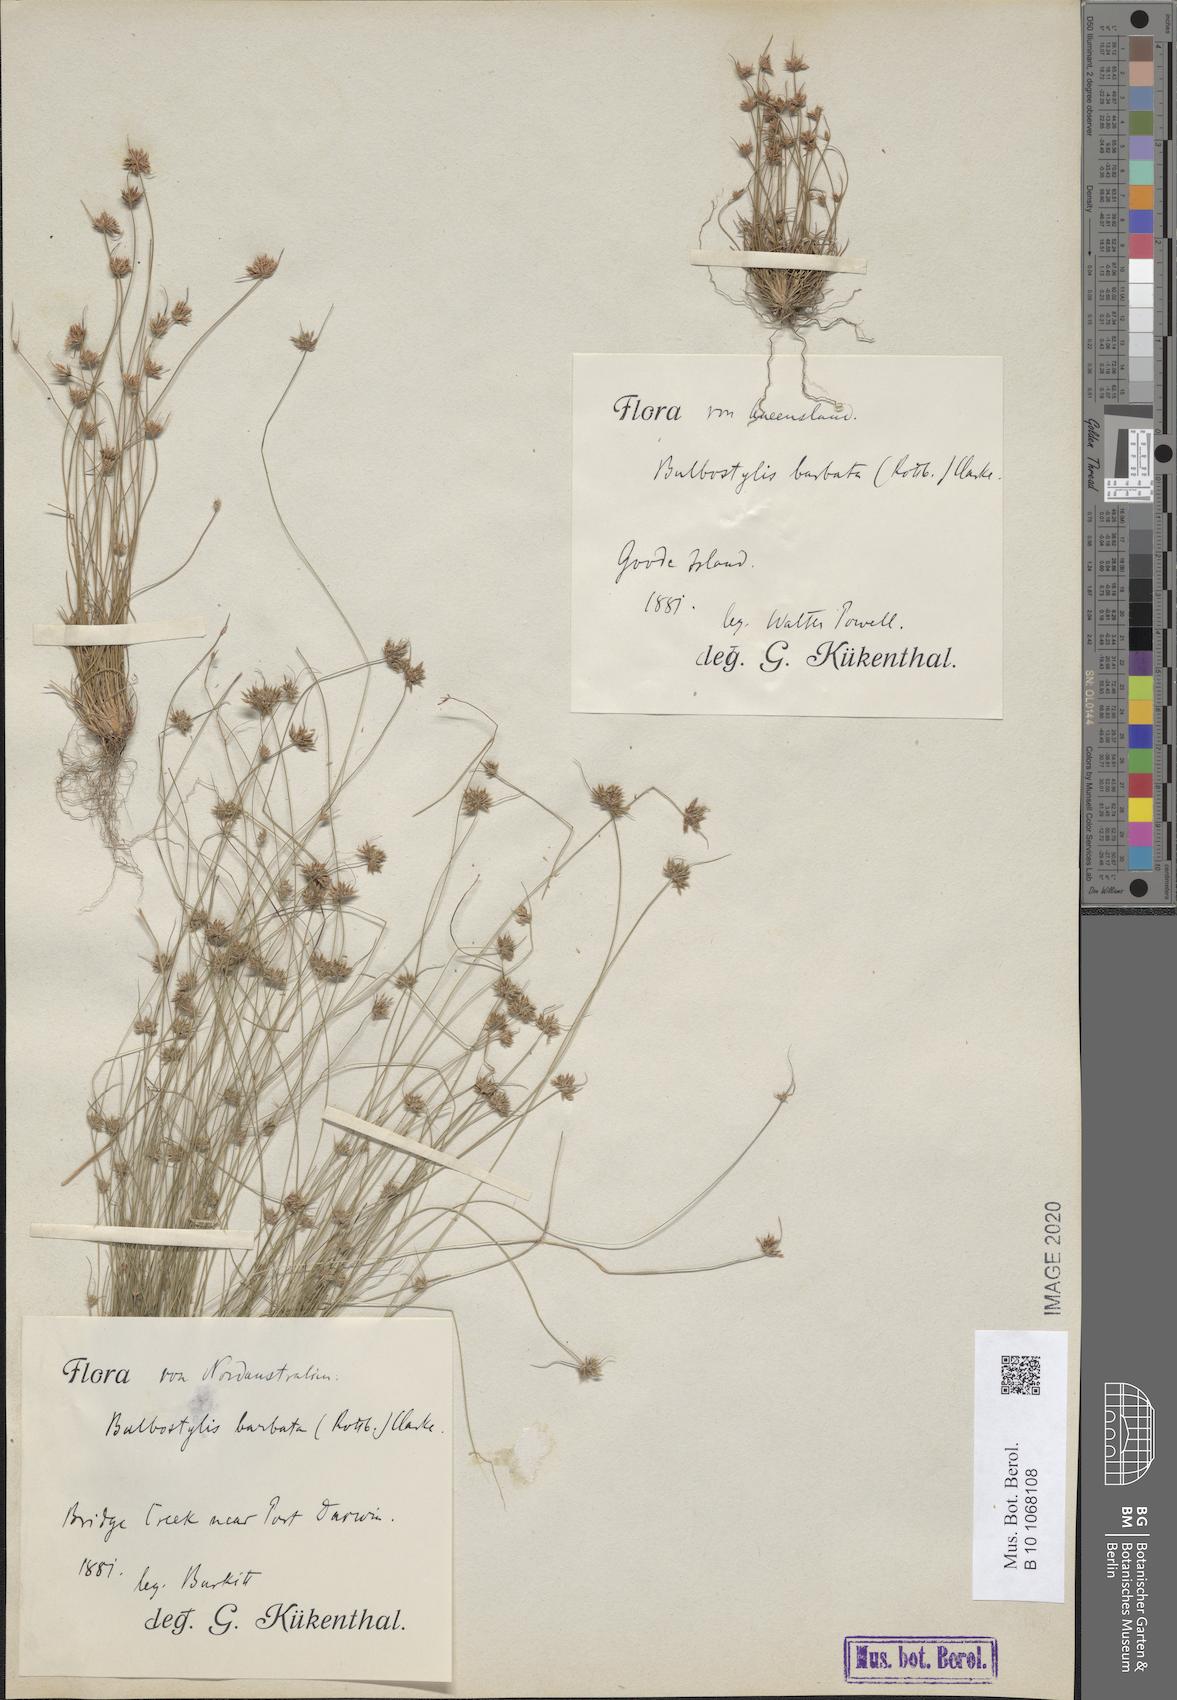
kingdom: Plantae
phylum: Tracheophyta
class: Liliopsida
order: Poales
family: Cyperaceae
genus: Bulbostylis
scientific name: Bulbostylis barbata
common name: Watergrass
